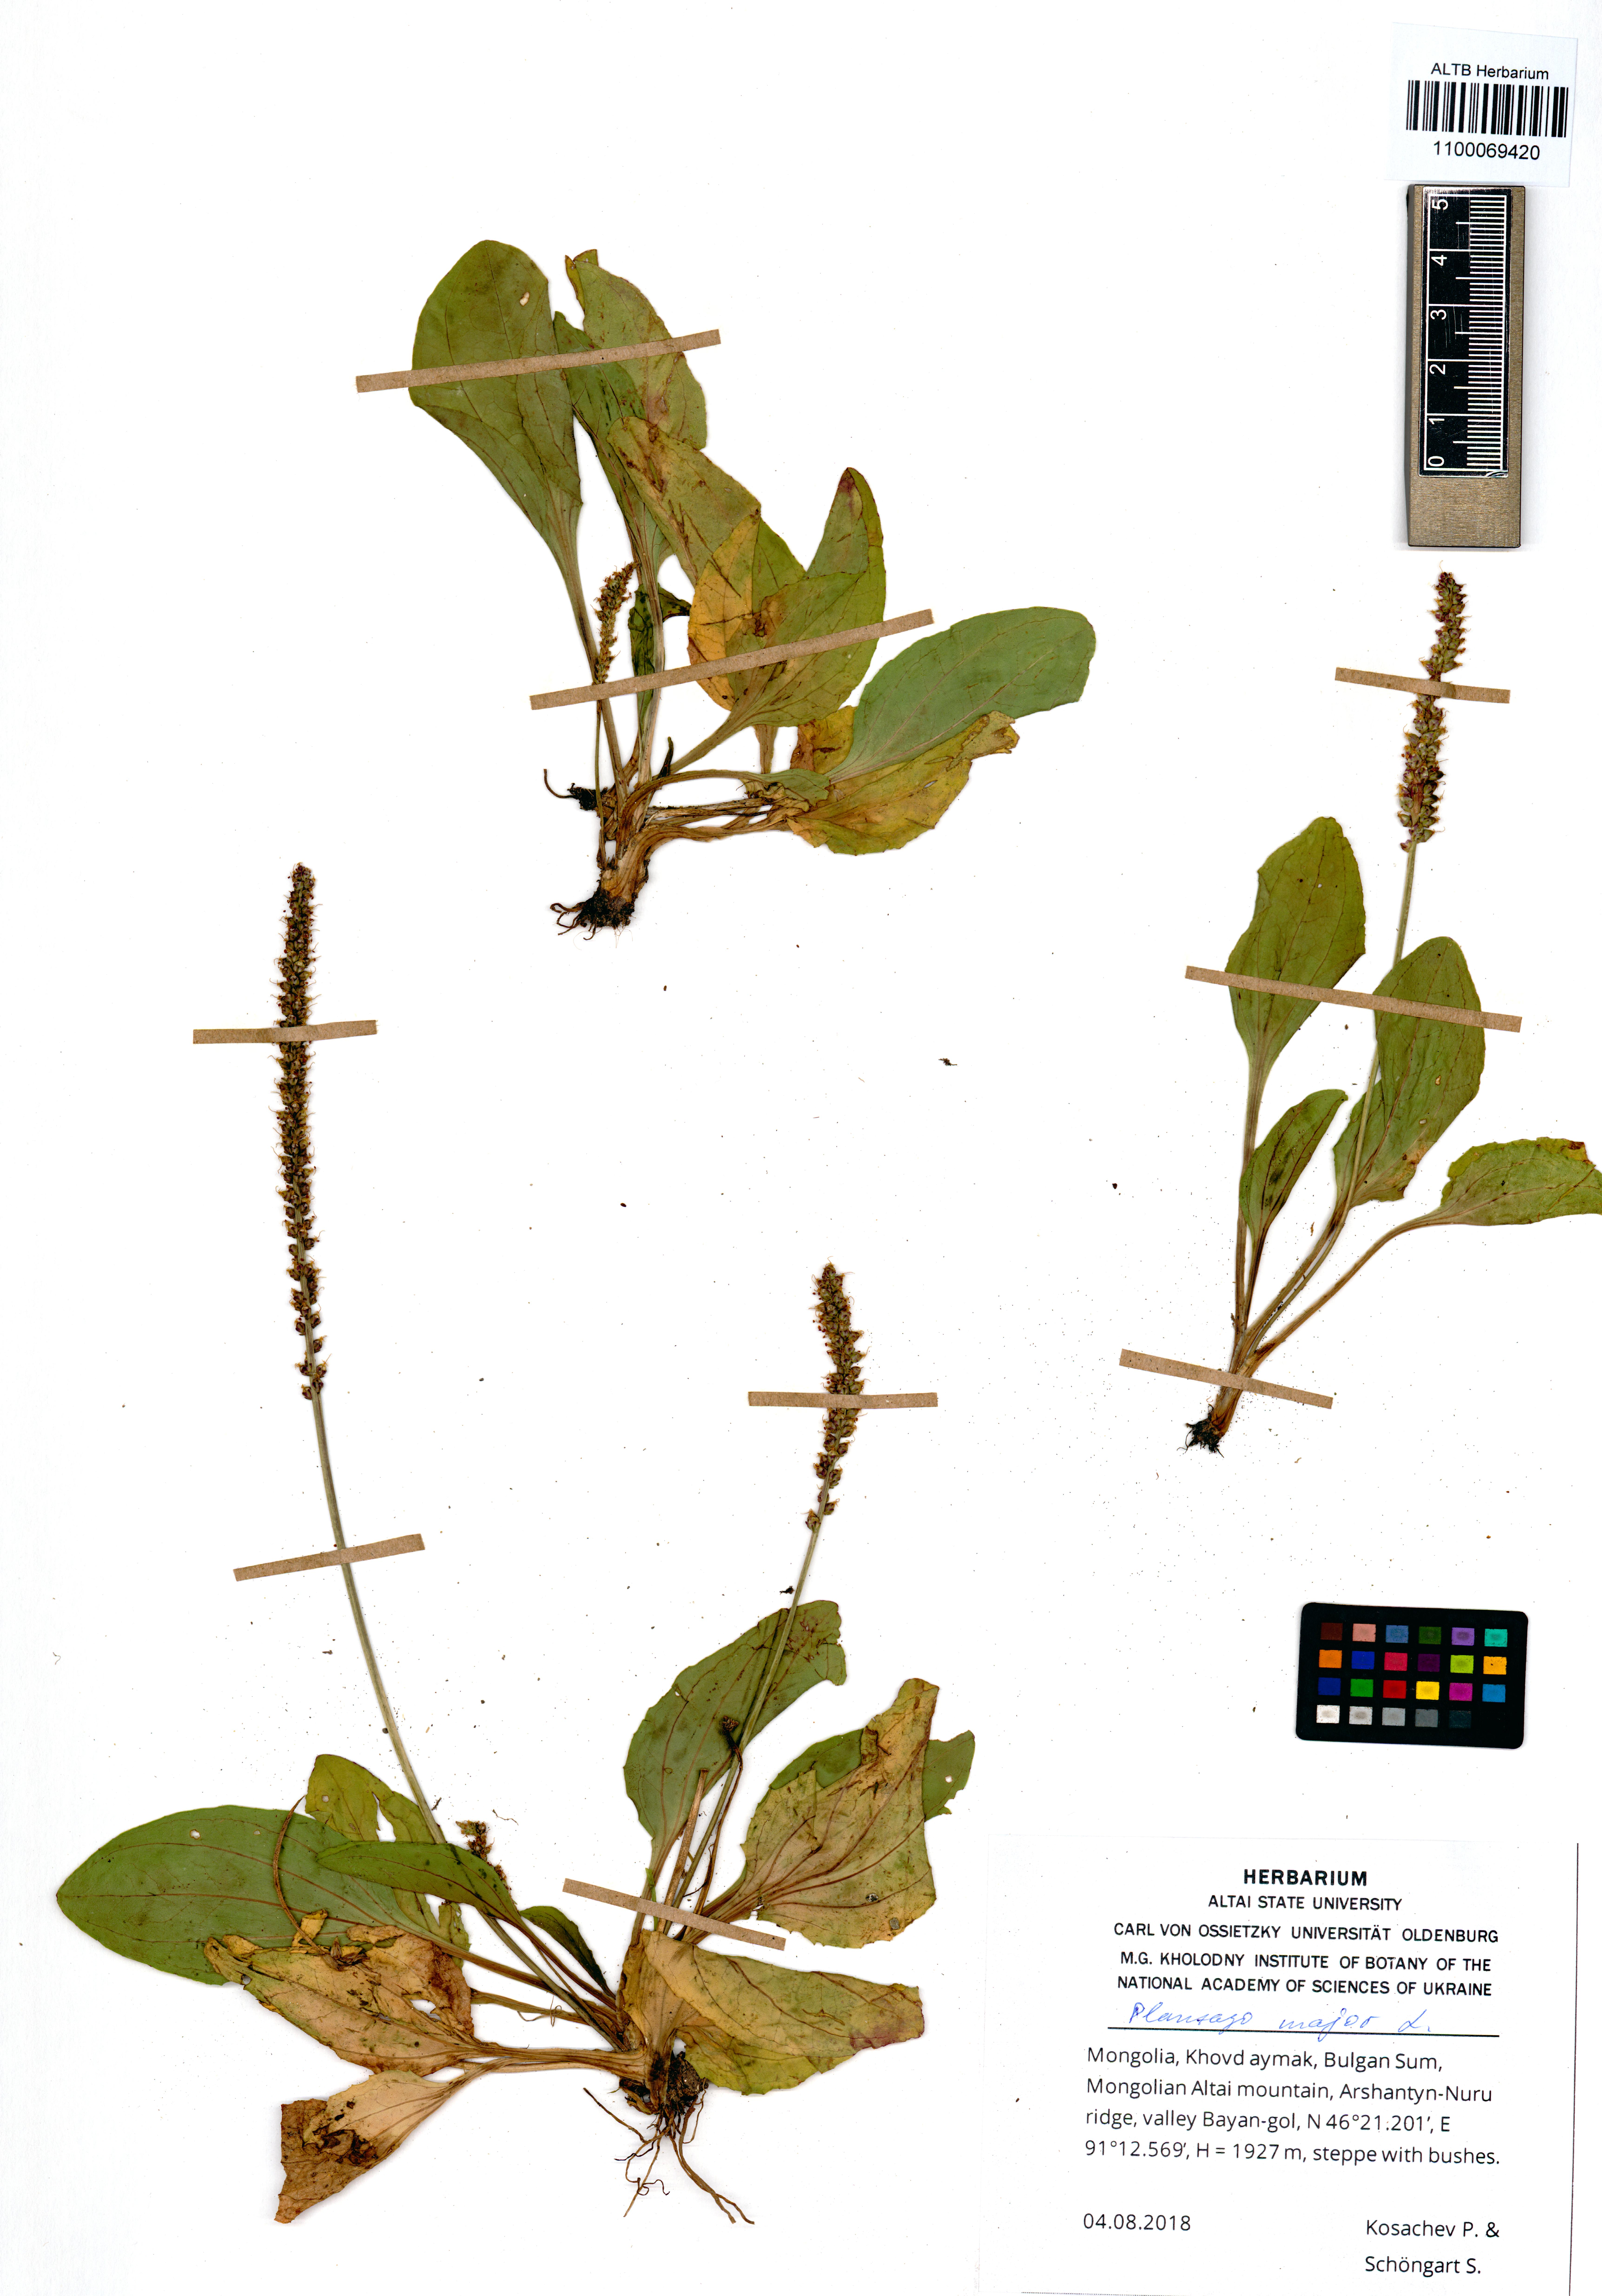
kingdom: Plantae
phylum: Tracheophyta
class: Magnoliopsida
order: Lamiales
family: Plantaginaceae
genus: Plantago
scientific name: Plantago major
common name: Common plantain
